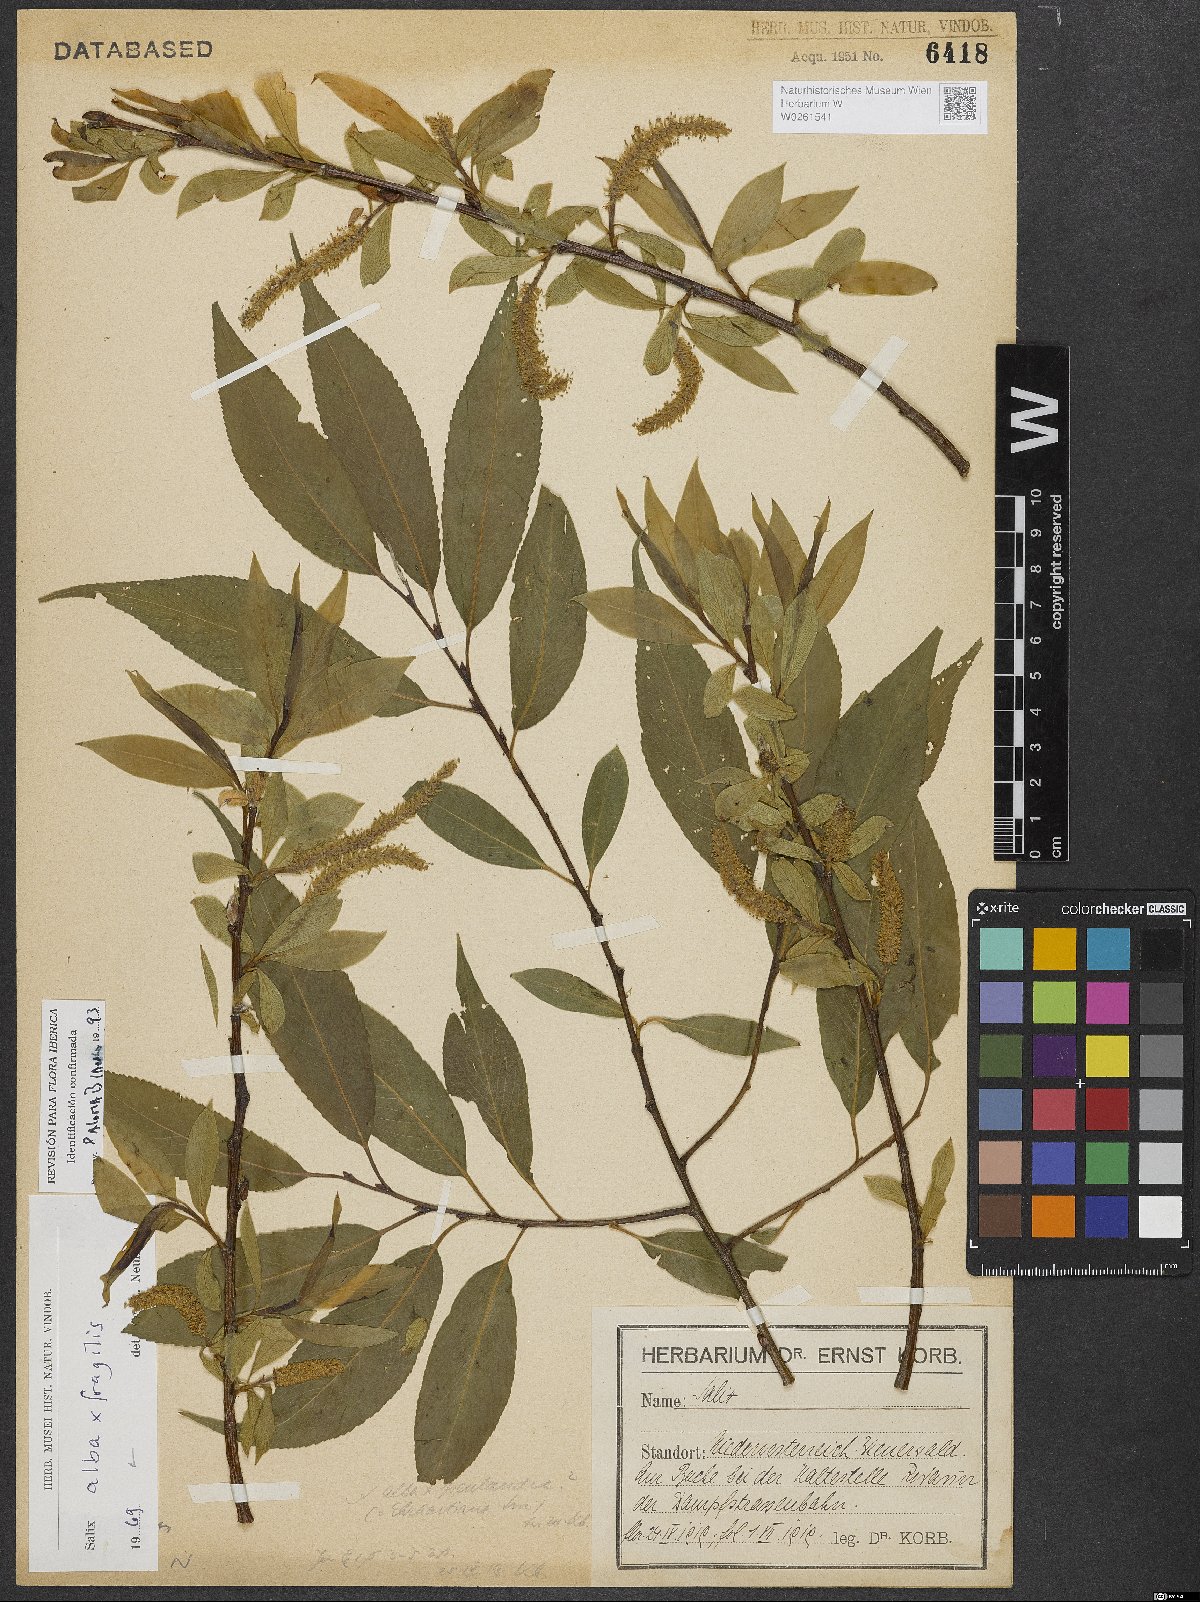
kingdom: Plantae
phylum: Tracheophyta
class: Magnoliopsida
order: Malpighiales
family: Salicaceae
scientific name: Salicaceae
